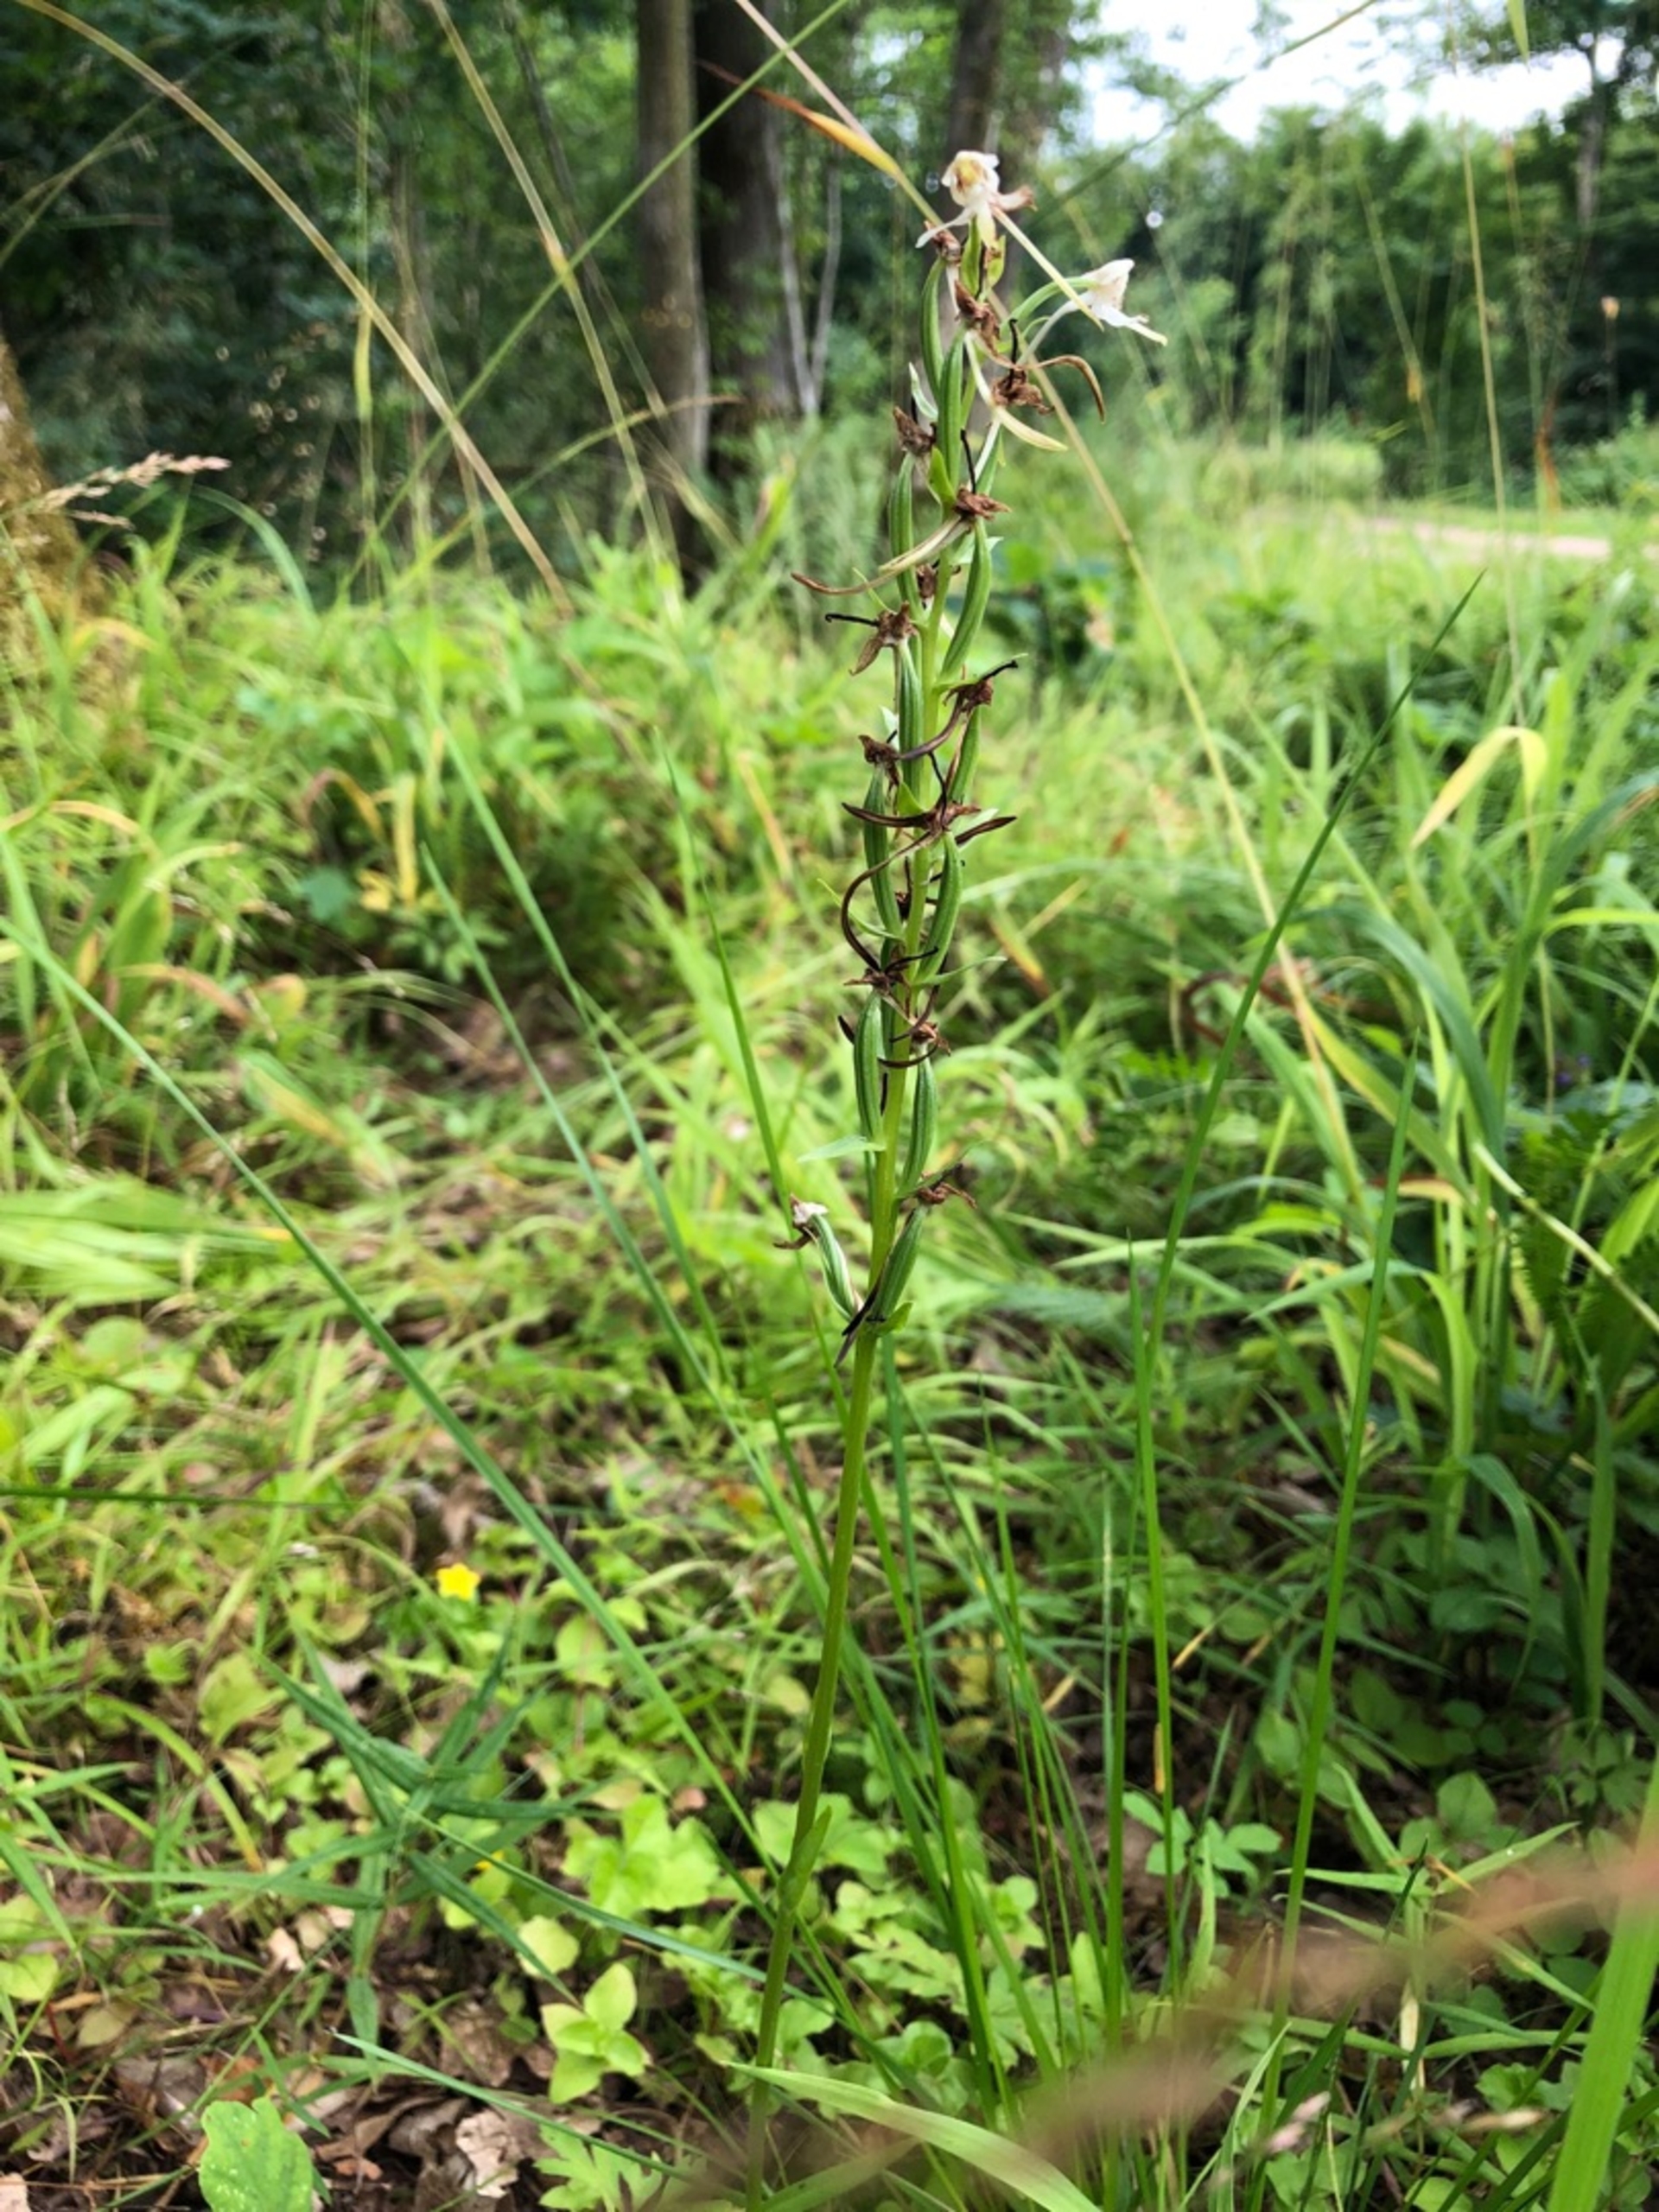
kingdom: Plantae
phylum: Tracheophyta
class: Liliopsida
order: Asparagales
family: Orchidaceae
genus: Platanthera
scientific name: Platanthera chlorantha
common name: Skov-gøgelilje
